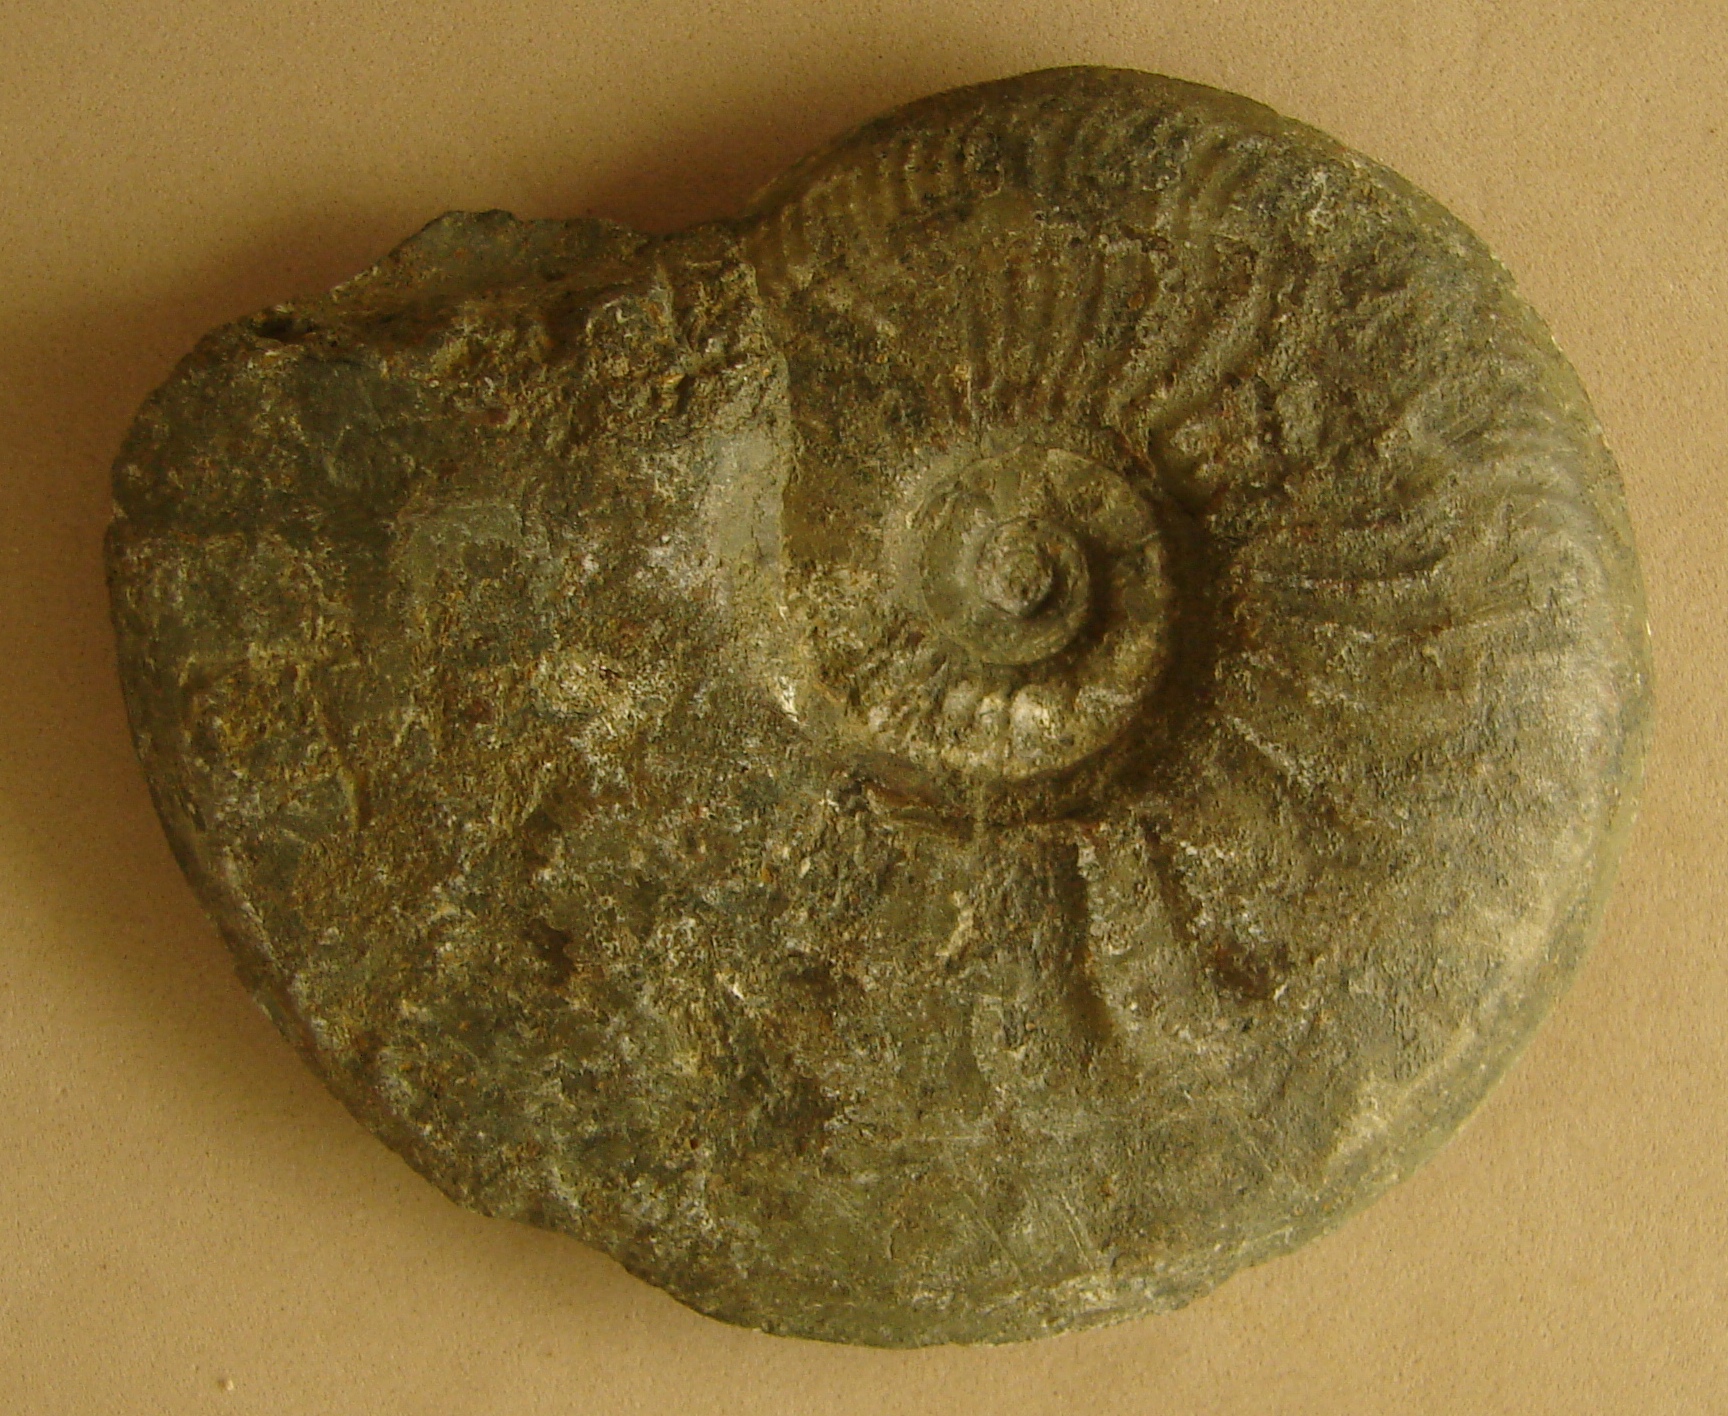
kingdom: Animalia
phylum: Mollusca
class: Cephalopoda
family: Hildoceratidae
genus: Pleydellia
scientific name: Pleydellia
